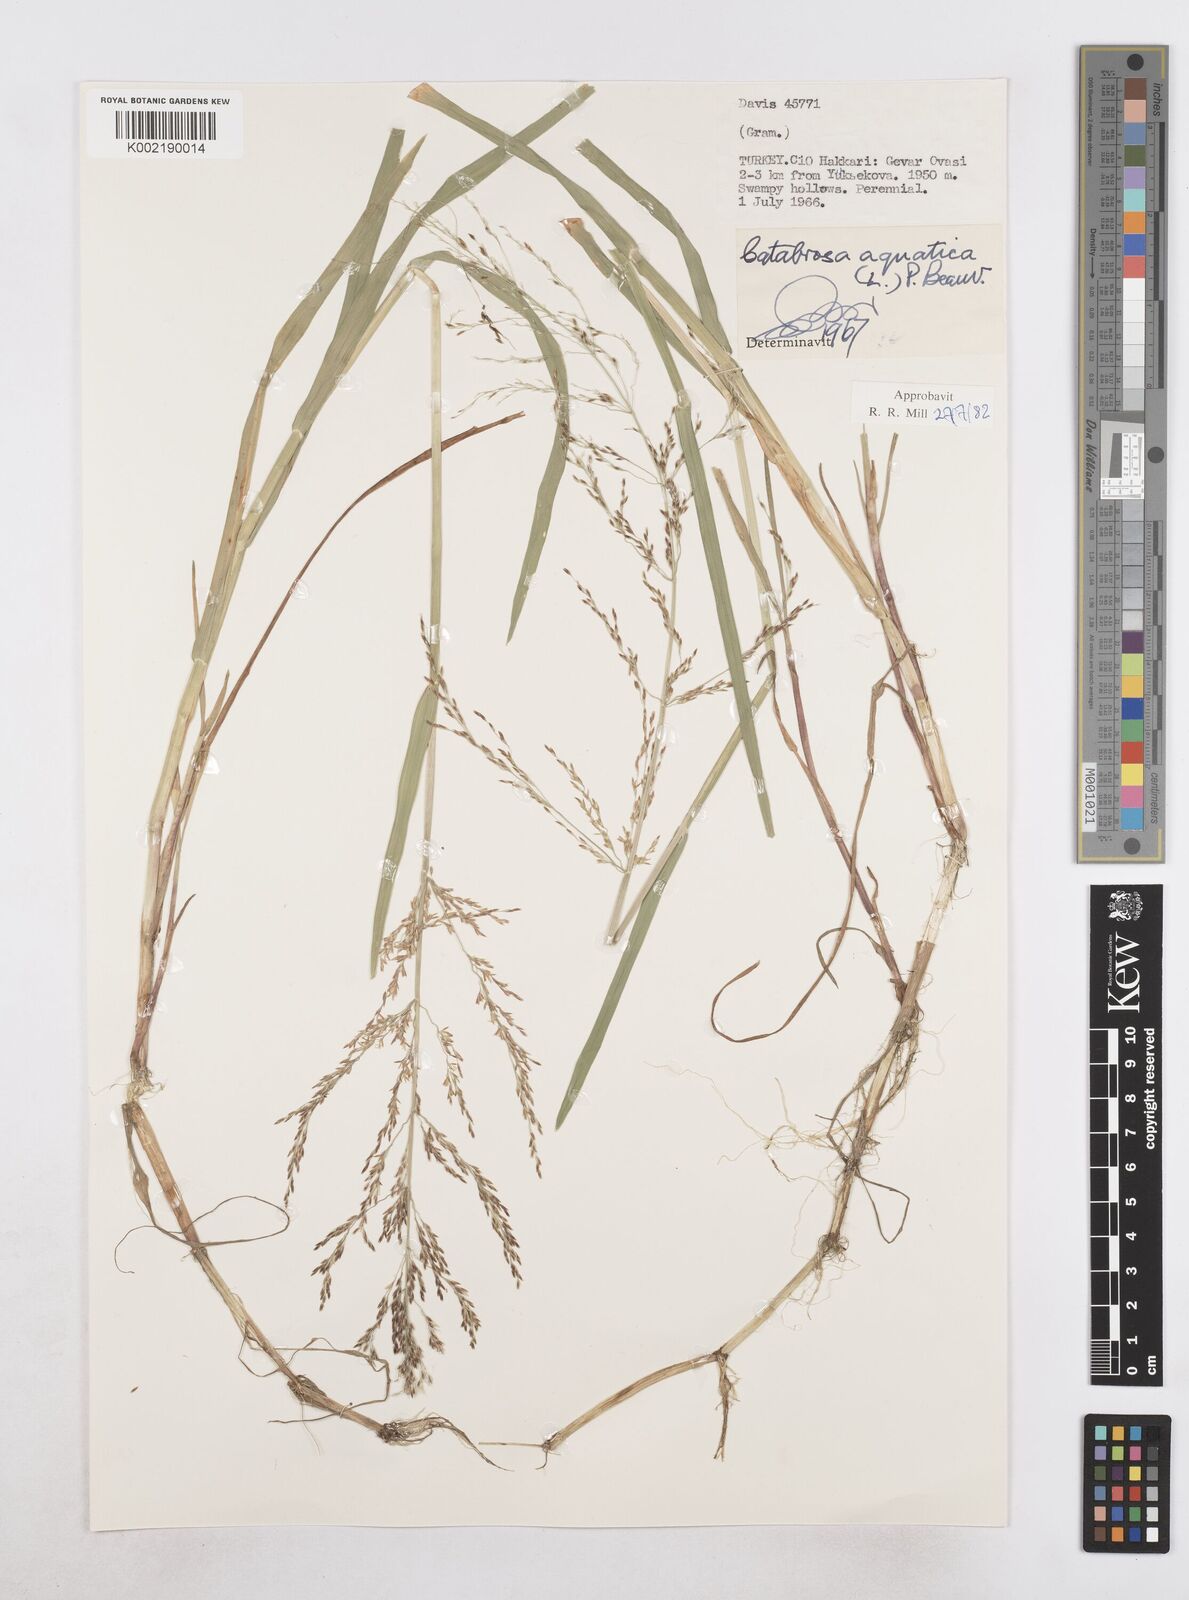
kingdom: Plantae
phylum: Tracheophyta
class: Liliopsida
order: Poales
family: Poaceae
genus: Catabrosa
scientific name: Catabrosa aquatica
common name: Whorl-grass
